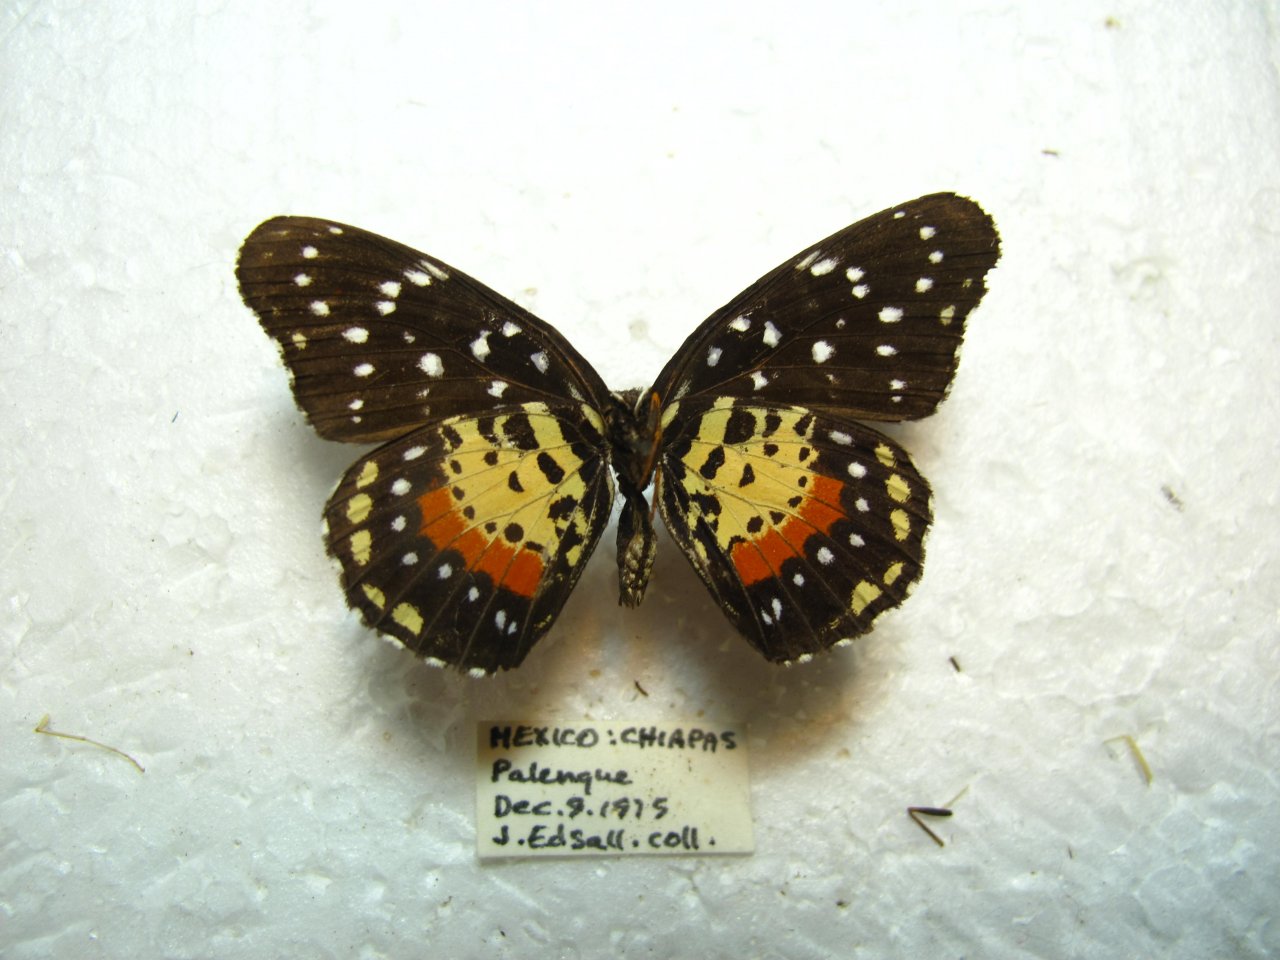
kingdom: Animalia
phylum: Arthropoda
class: Insecta
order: Lepidoptera
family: Nymphalidae
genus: Chlosyne
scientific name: Chlosyne janais
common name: Crimson Patch
